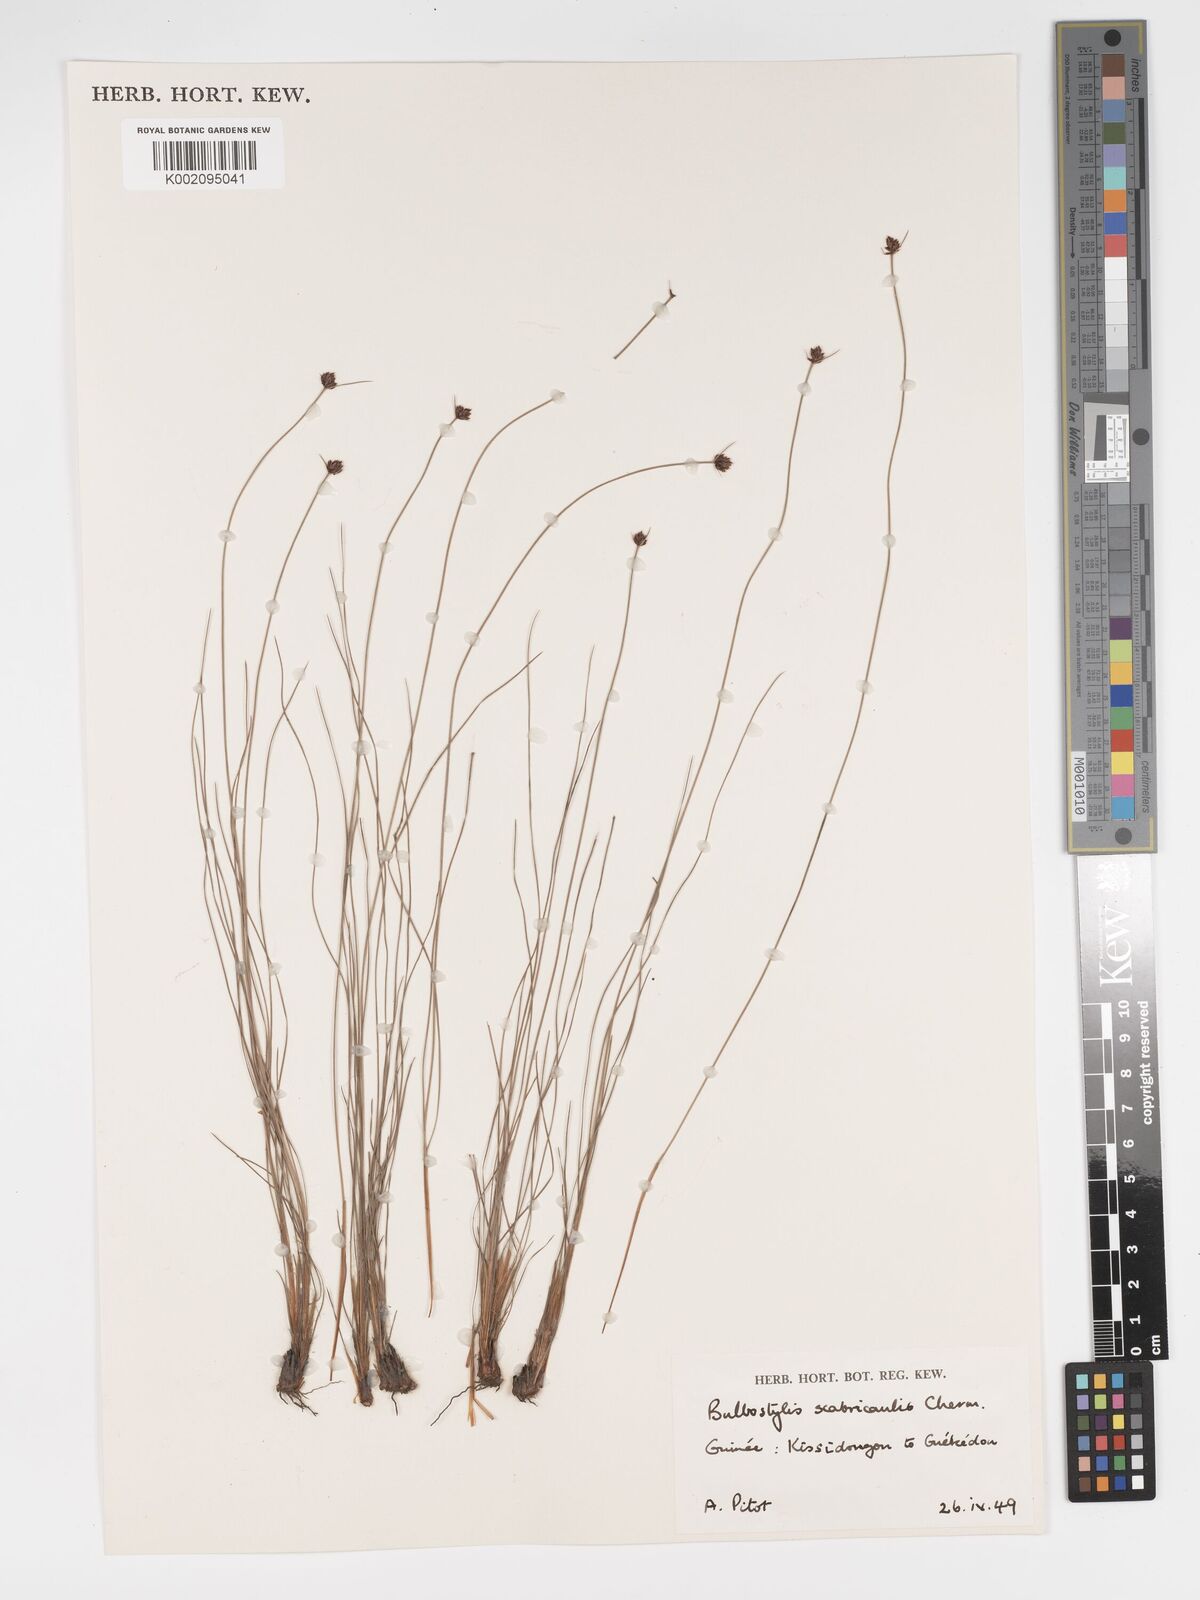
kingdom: Plantae
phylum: Tracheophyta
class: Liliopsida
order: Poales
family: Cyperaceae
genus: Bulbostylis
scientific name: Bulbostylis scabricaulis
